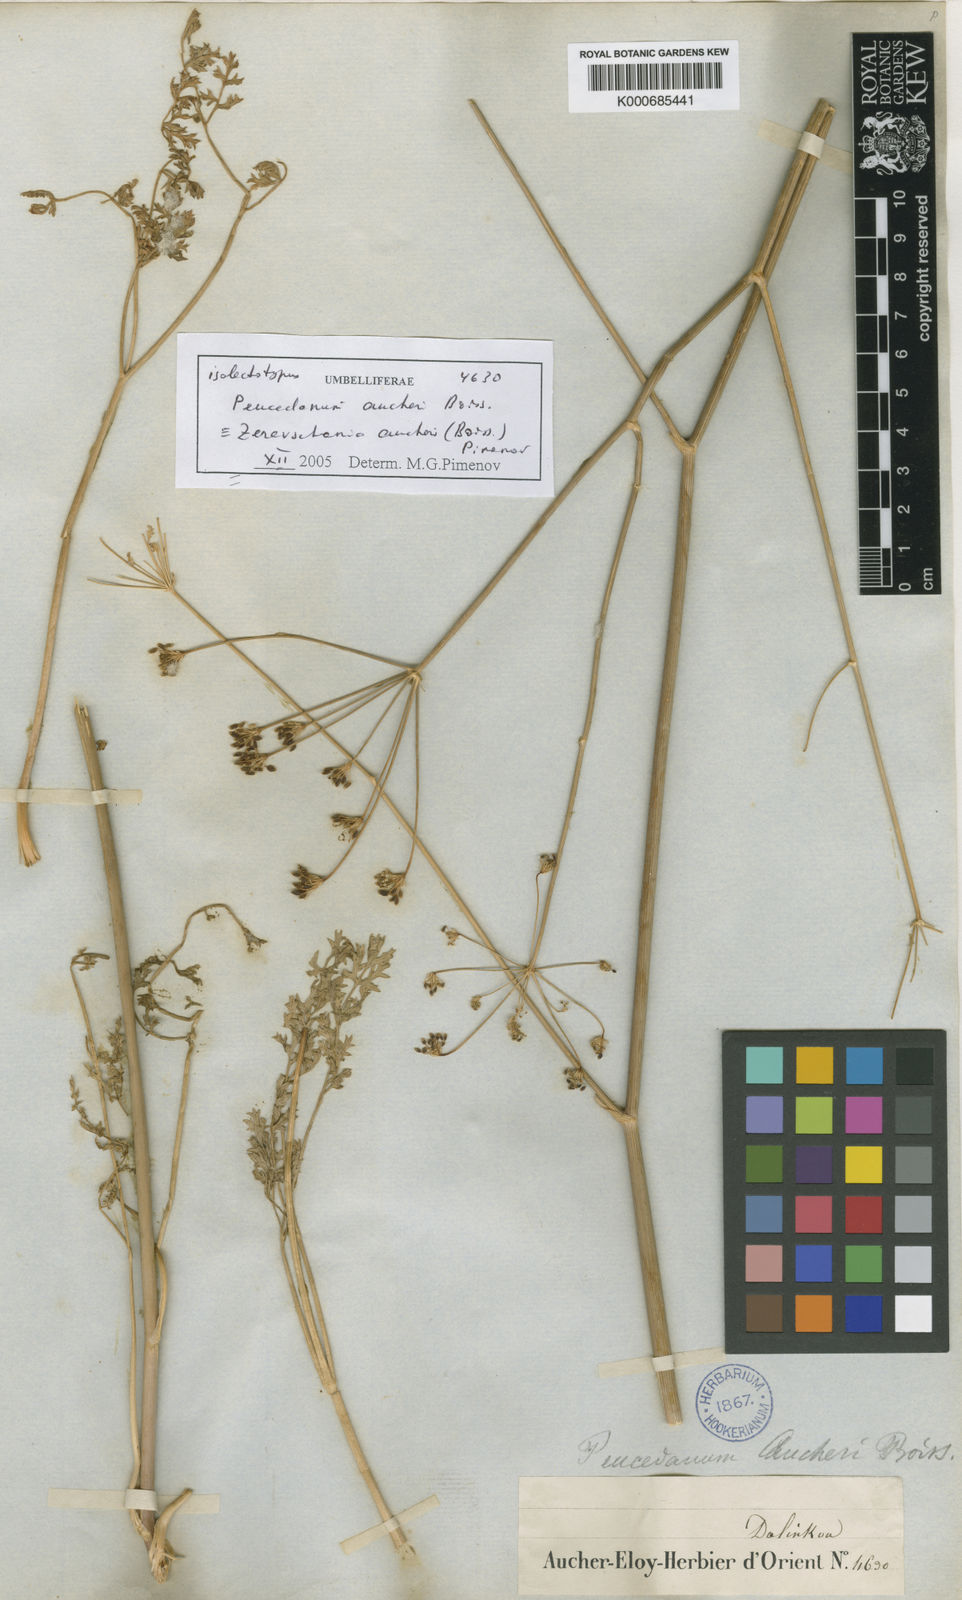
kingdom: Plantae
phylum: Tracheophyta
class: Magnoliopsida
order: Apiales
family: Apiaceae
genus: Zeravschania
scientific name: Zeravschania aucheri
